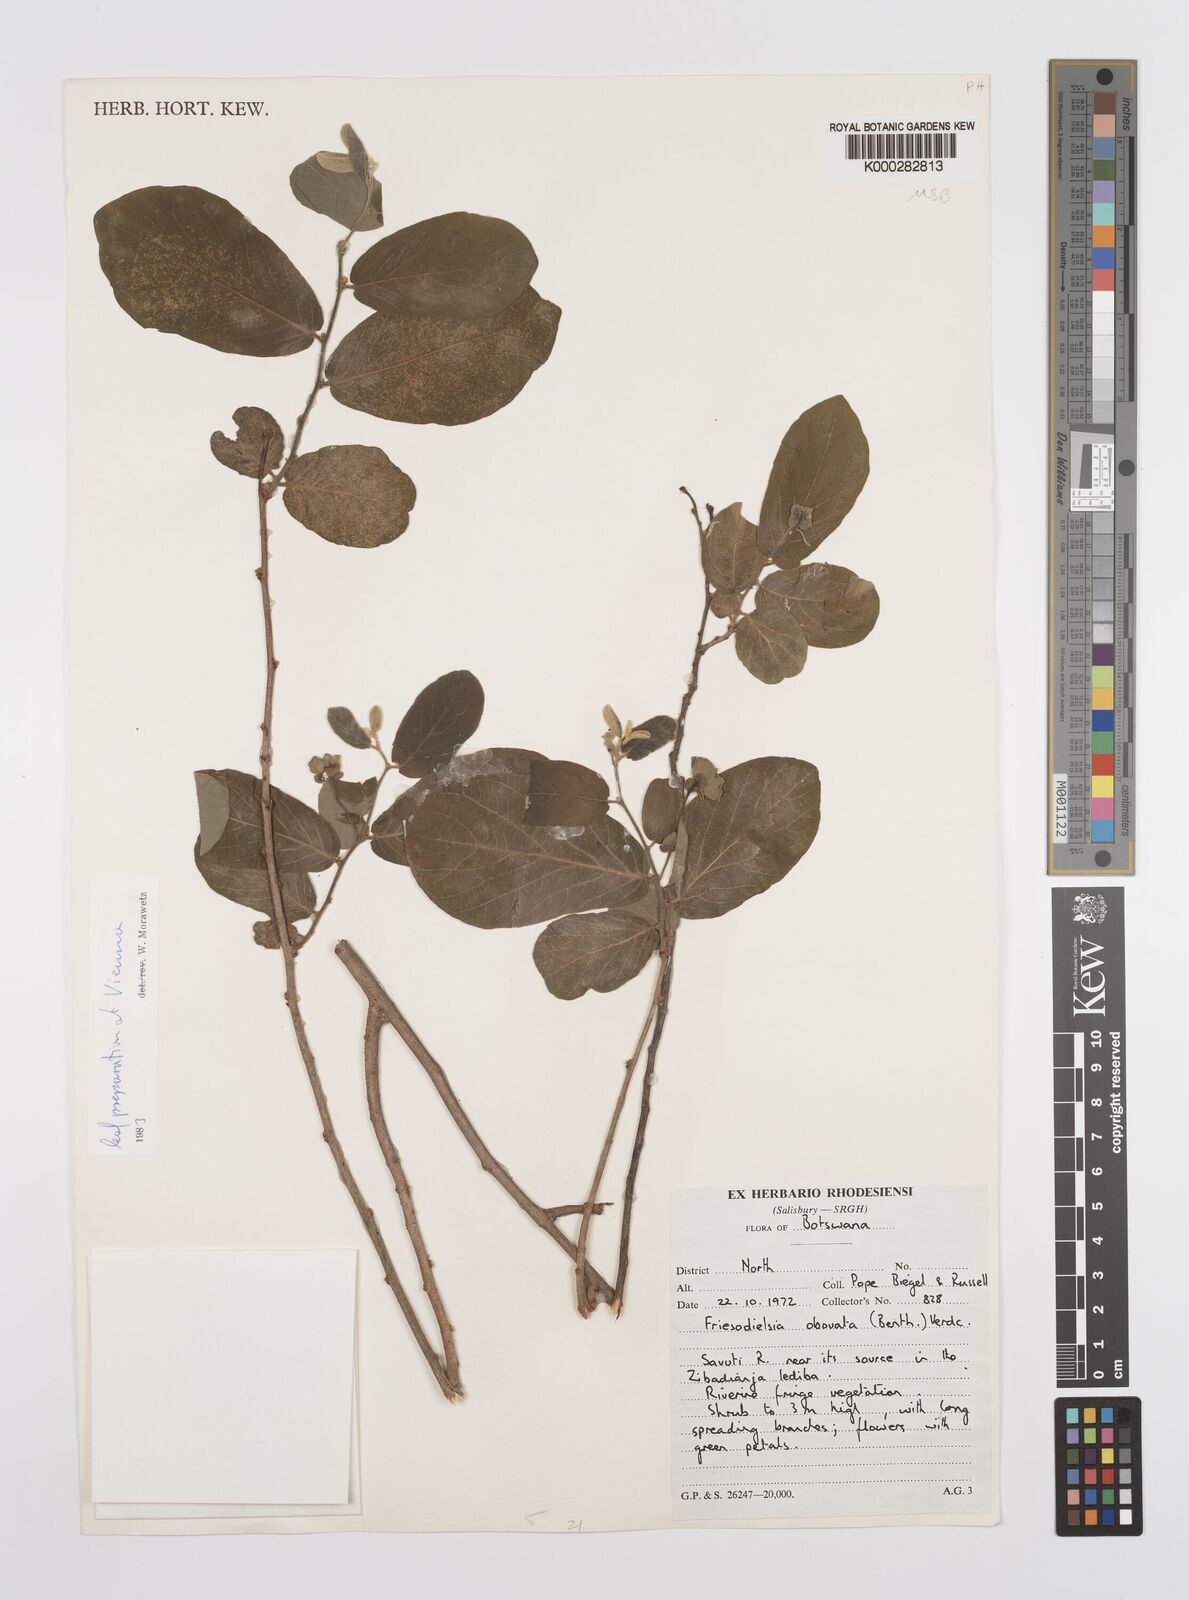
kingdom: Plantae
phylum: Tracheophyta
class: Magnoliopsida
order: Magnoliales
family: Annonaceae
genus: Friesodielsia
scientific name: Friesodielsia obovata
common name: Monkey fingers
